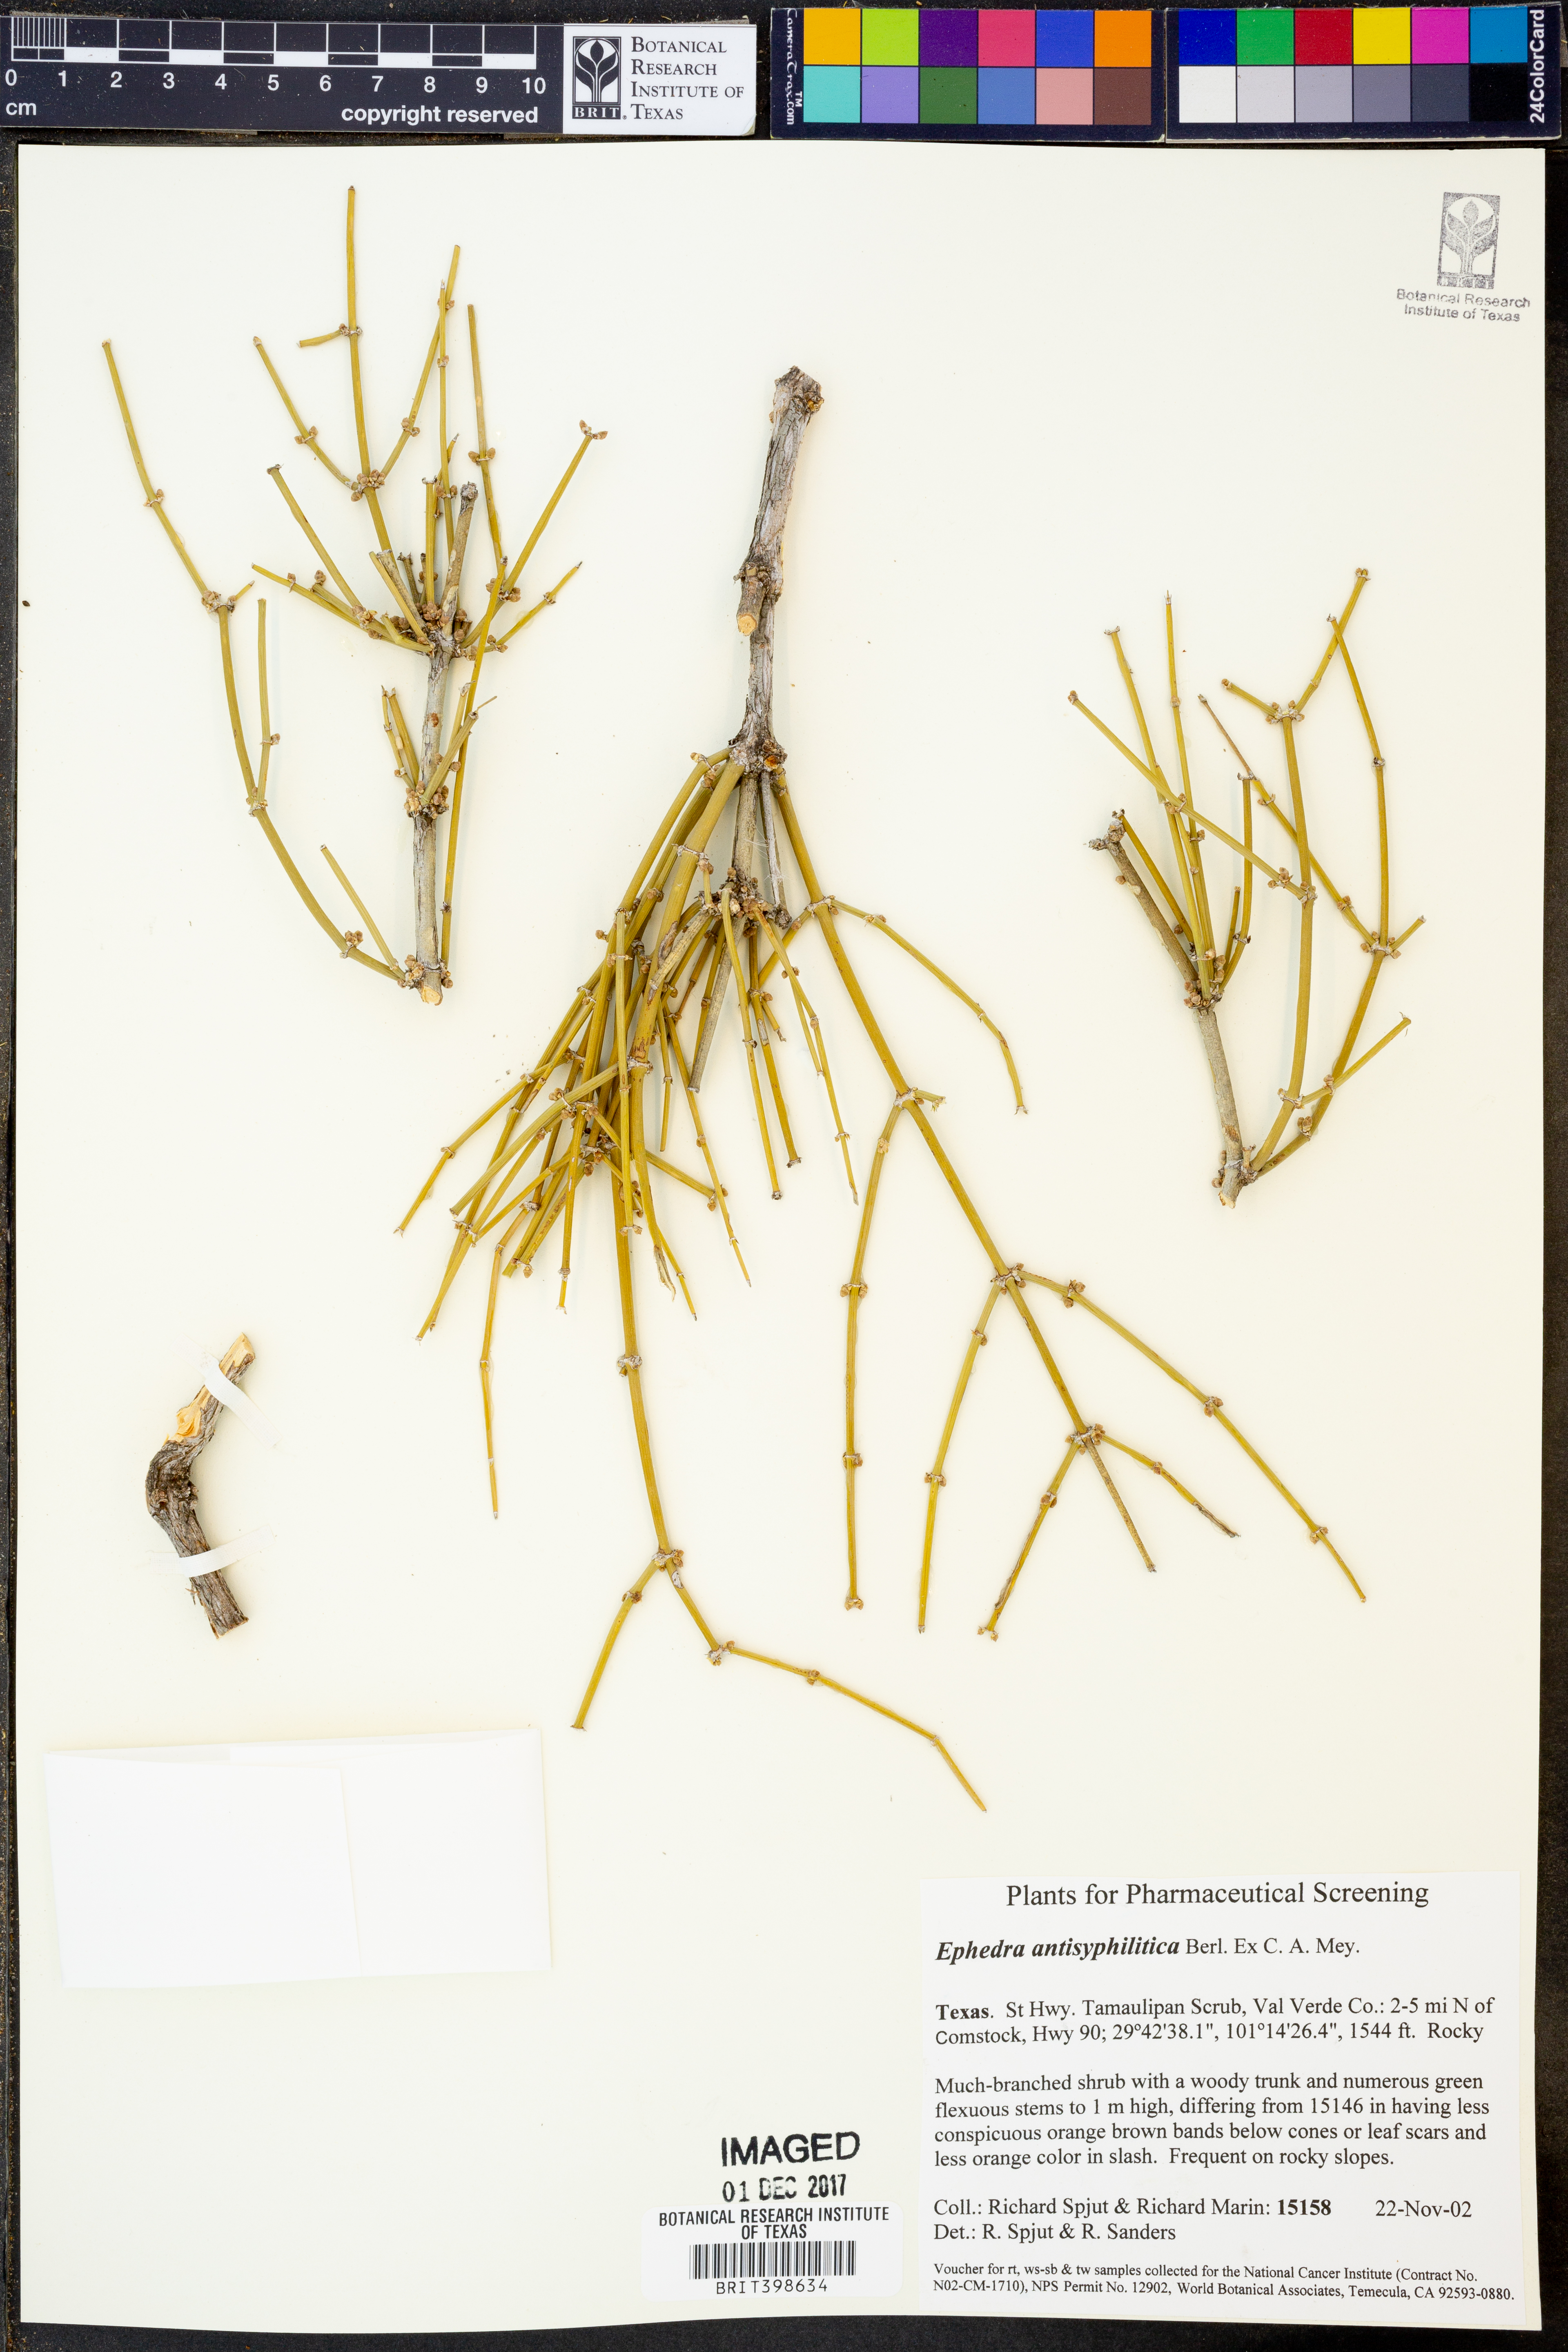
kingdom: Plantae
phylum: Tracheophyta
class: Gnetopsida
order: Ephedrales
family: Ephedraceae
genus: Ephedra
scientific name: Ephedra antisyphilitica
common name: Clipweed
